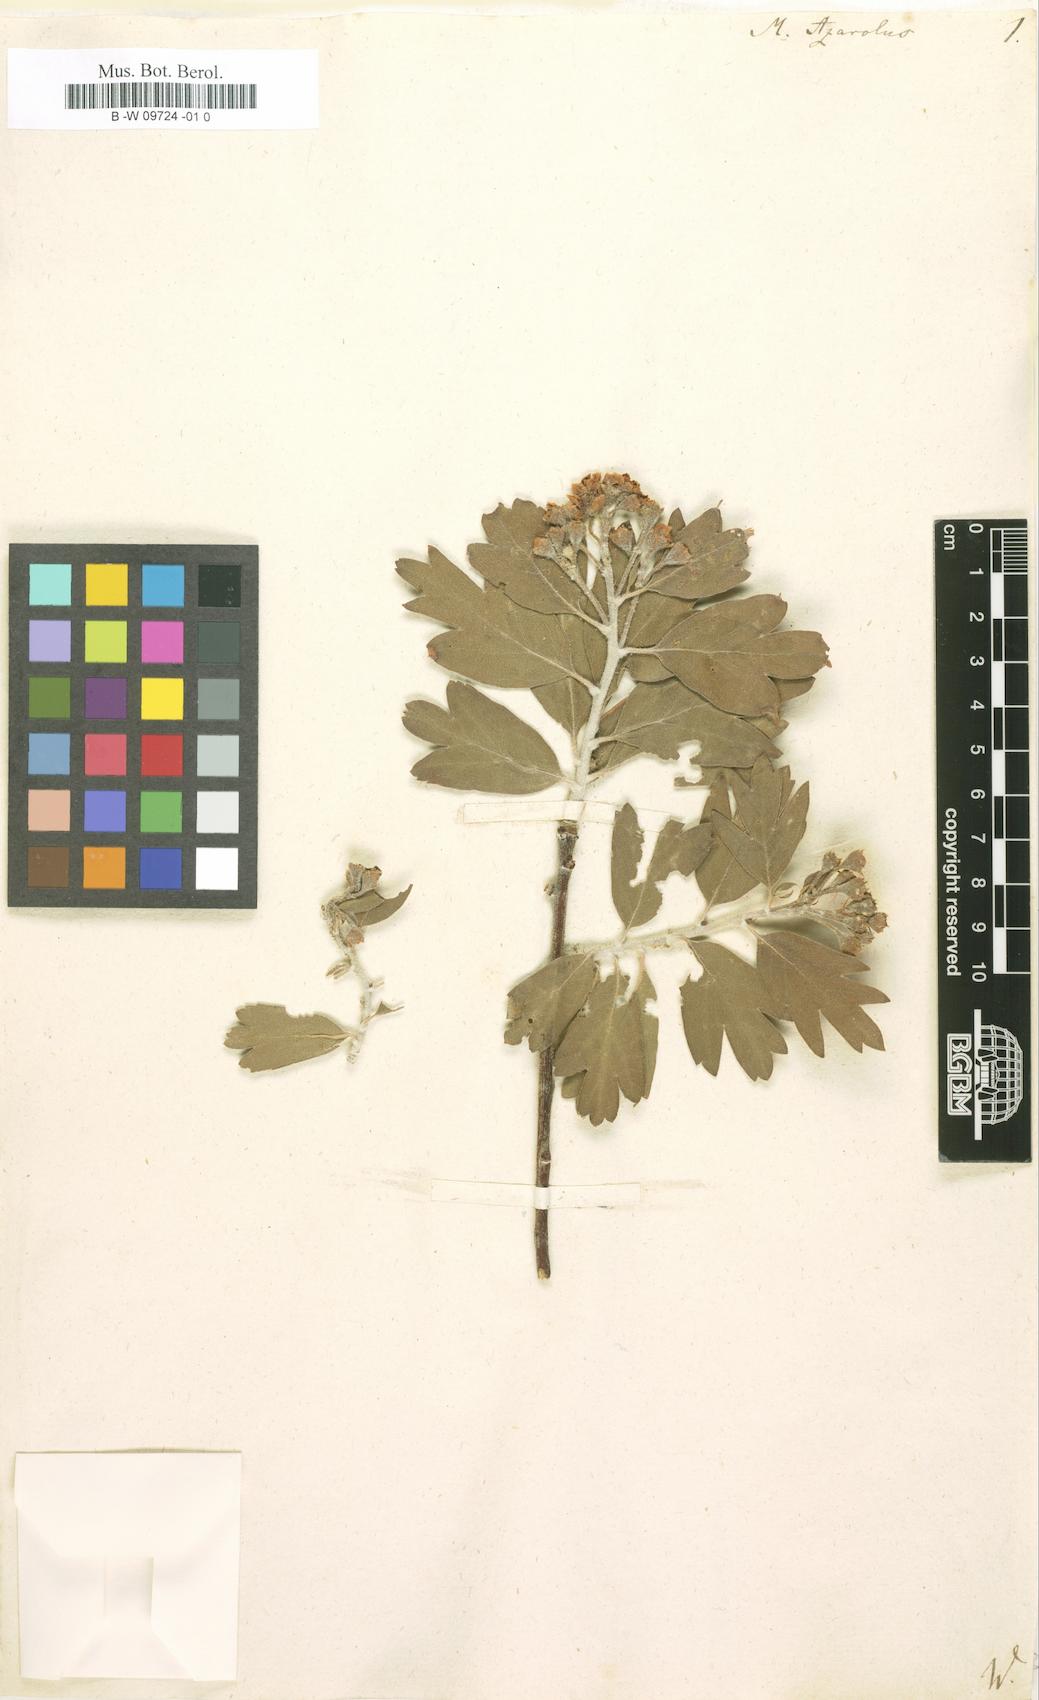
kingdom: Plantae
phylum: Tracheophyta
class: Magnoliopsida
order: Rosales
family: Rosaceae
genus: Crataegus
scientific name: Crataegus
